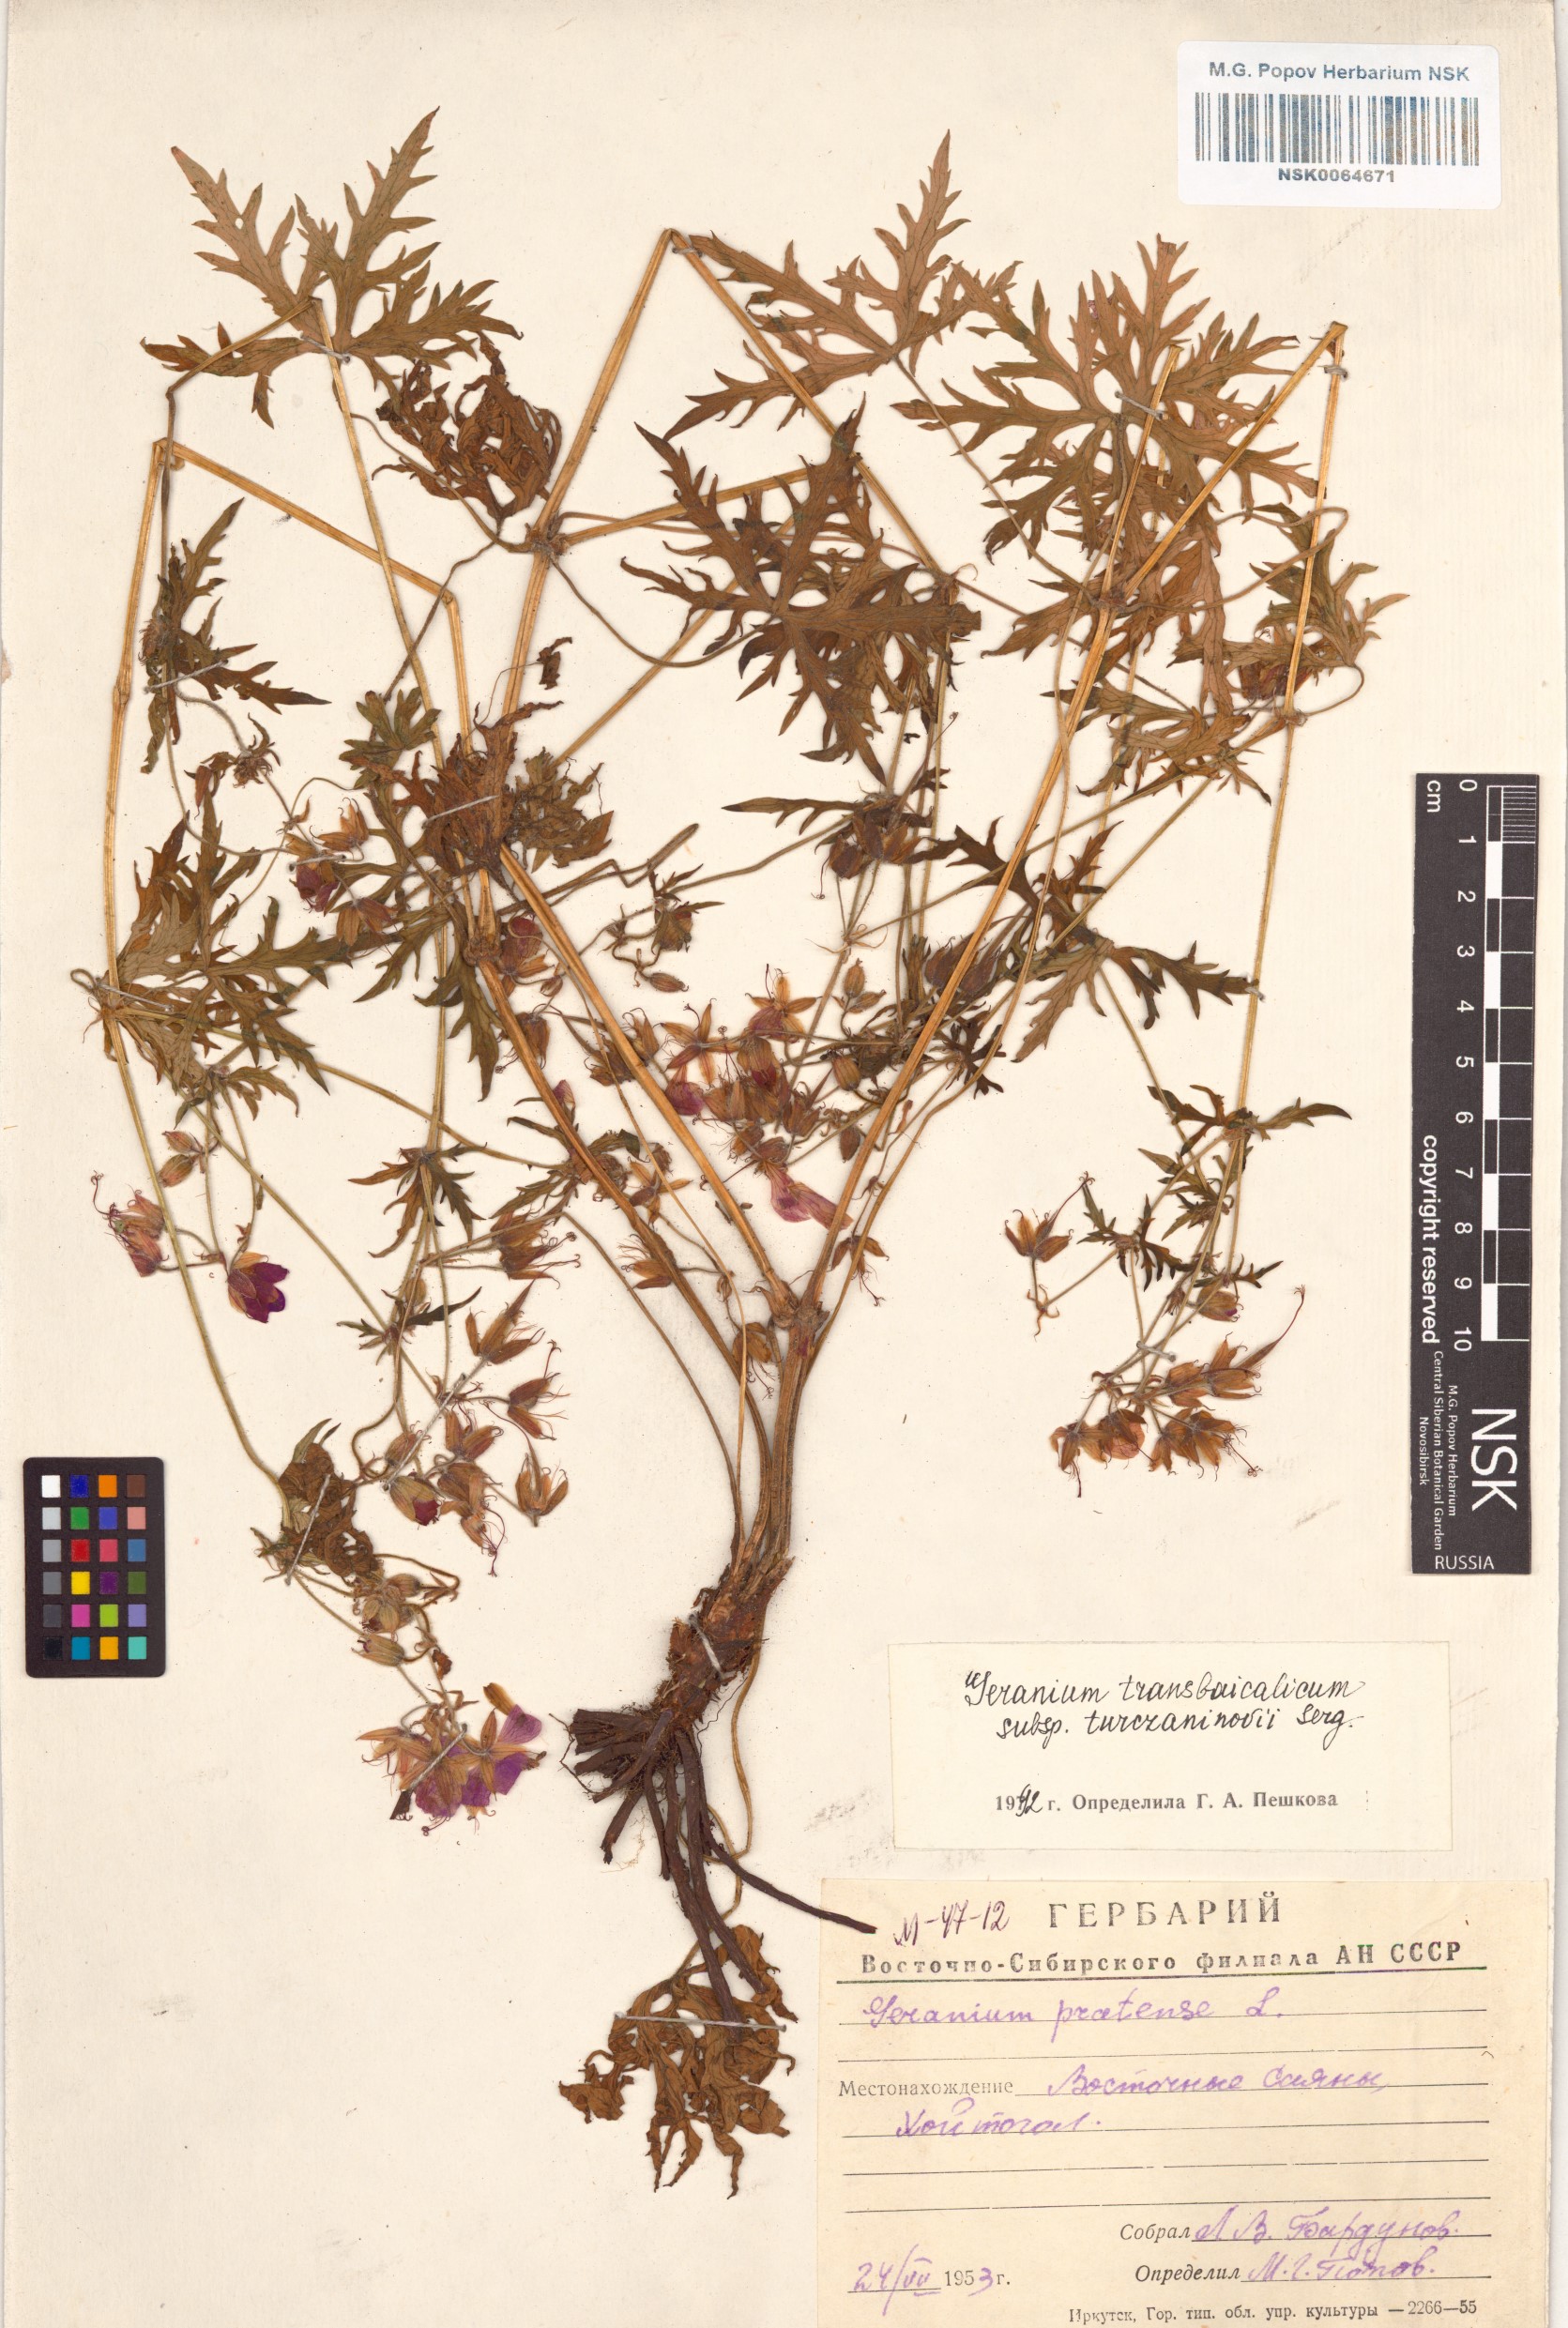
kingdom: Plantae
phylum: Tracheophyta
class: Magnoliopsida
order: Geraniales
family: Geraniaceae
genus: Geranium
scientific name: Geranium pratense
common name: Meadow crane's-bill
